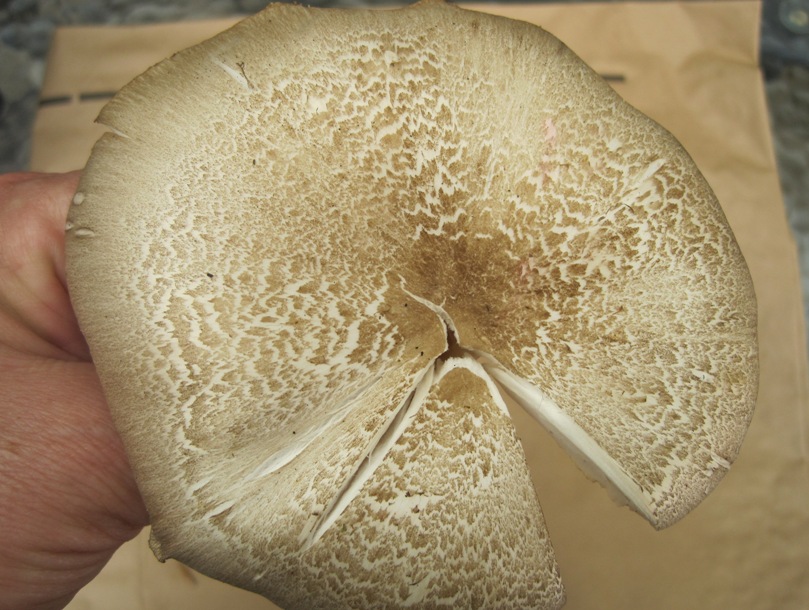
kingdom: Fungi
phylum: Basidiomycota
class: Agaricomycetes
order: Agaricales
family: Tricholomataceae
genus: Megacollybia
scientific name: Megacollybia platyphylla
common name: bredbladet væbnerhat
